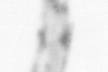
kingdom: Animalia
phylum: Arthropoda
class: Copepoda
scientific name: Copepoda
